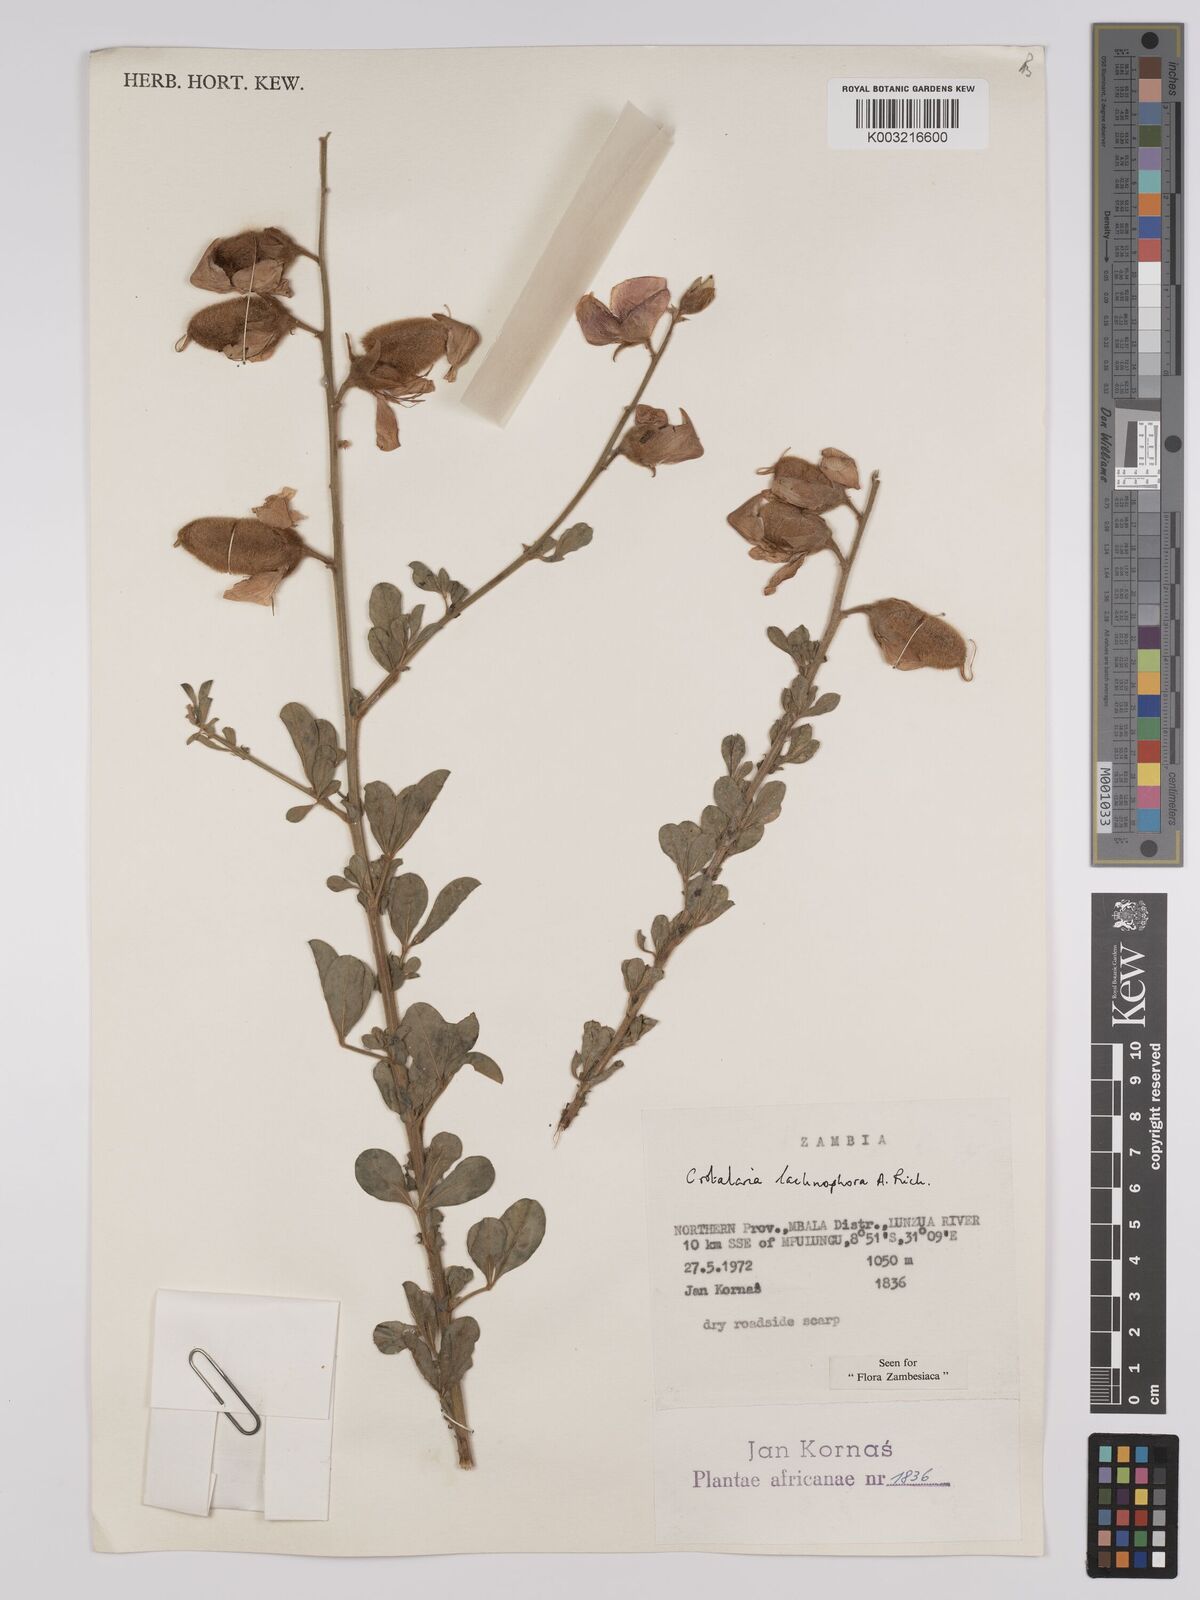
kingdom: Plantae
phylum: Tracheophyta
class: Magnoliopsida
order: Fabales
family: Fabaceae
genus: Crotalaria
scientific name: Crotalaria lachnophora
